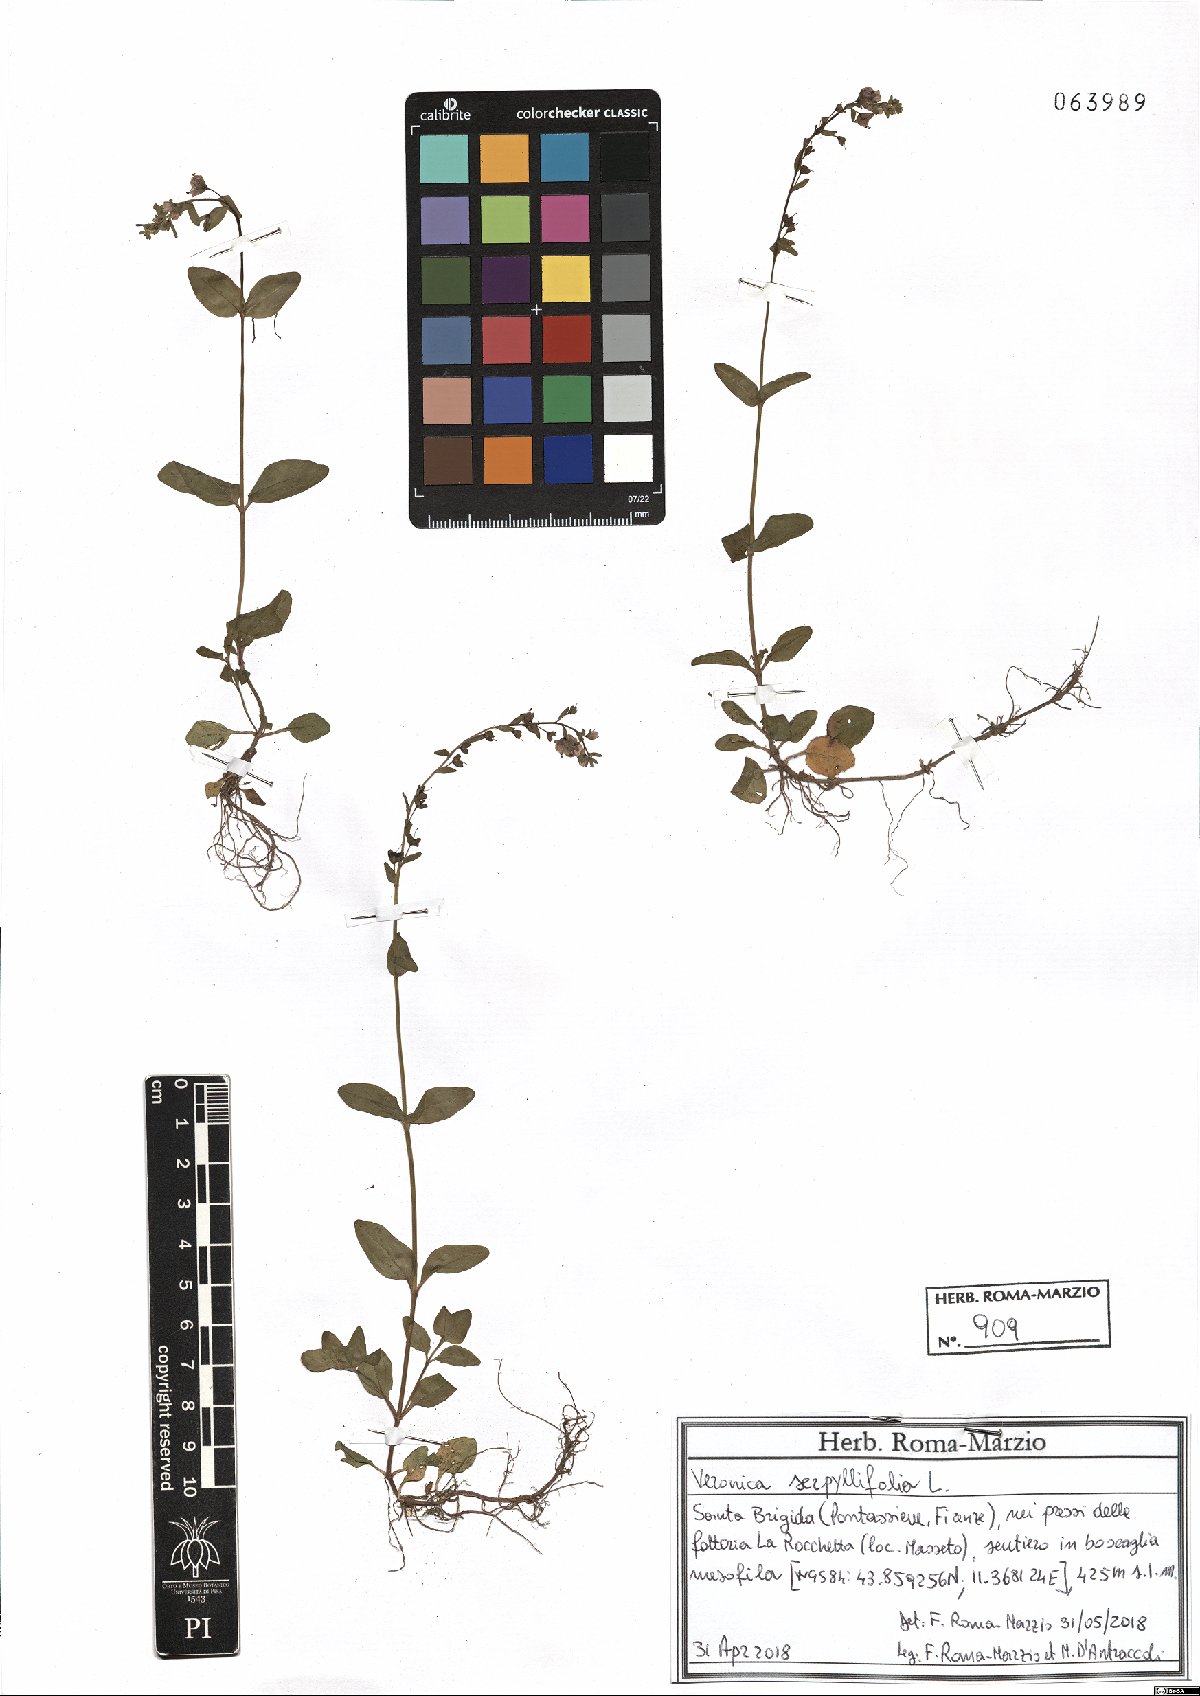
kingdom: Plantae
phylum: Tracheophyta
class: Magnoliopsida
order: Lamiales
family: Plantaginaceae
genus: Veronica
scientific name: Veronica serpyllifolia
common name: Thyme-leaved speedwell
